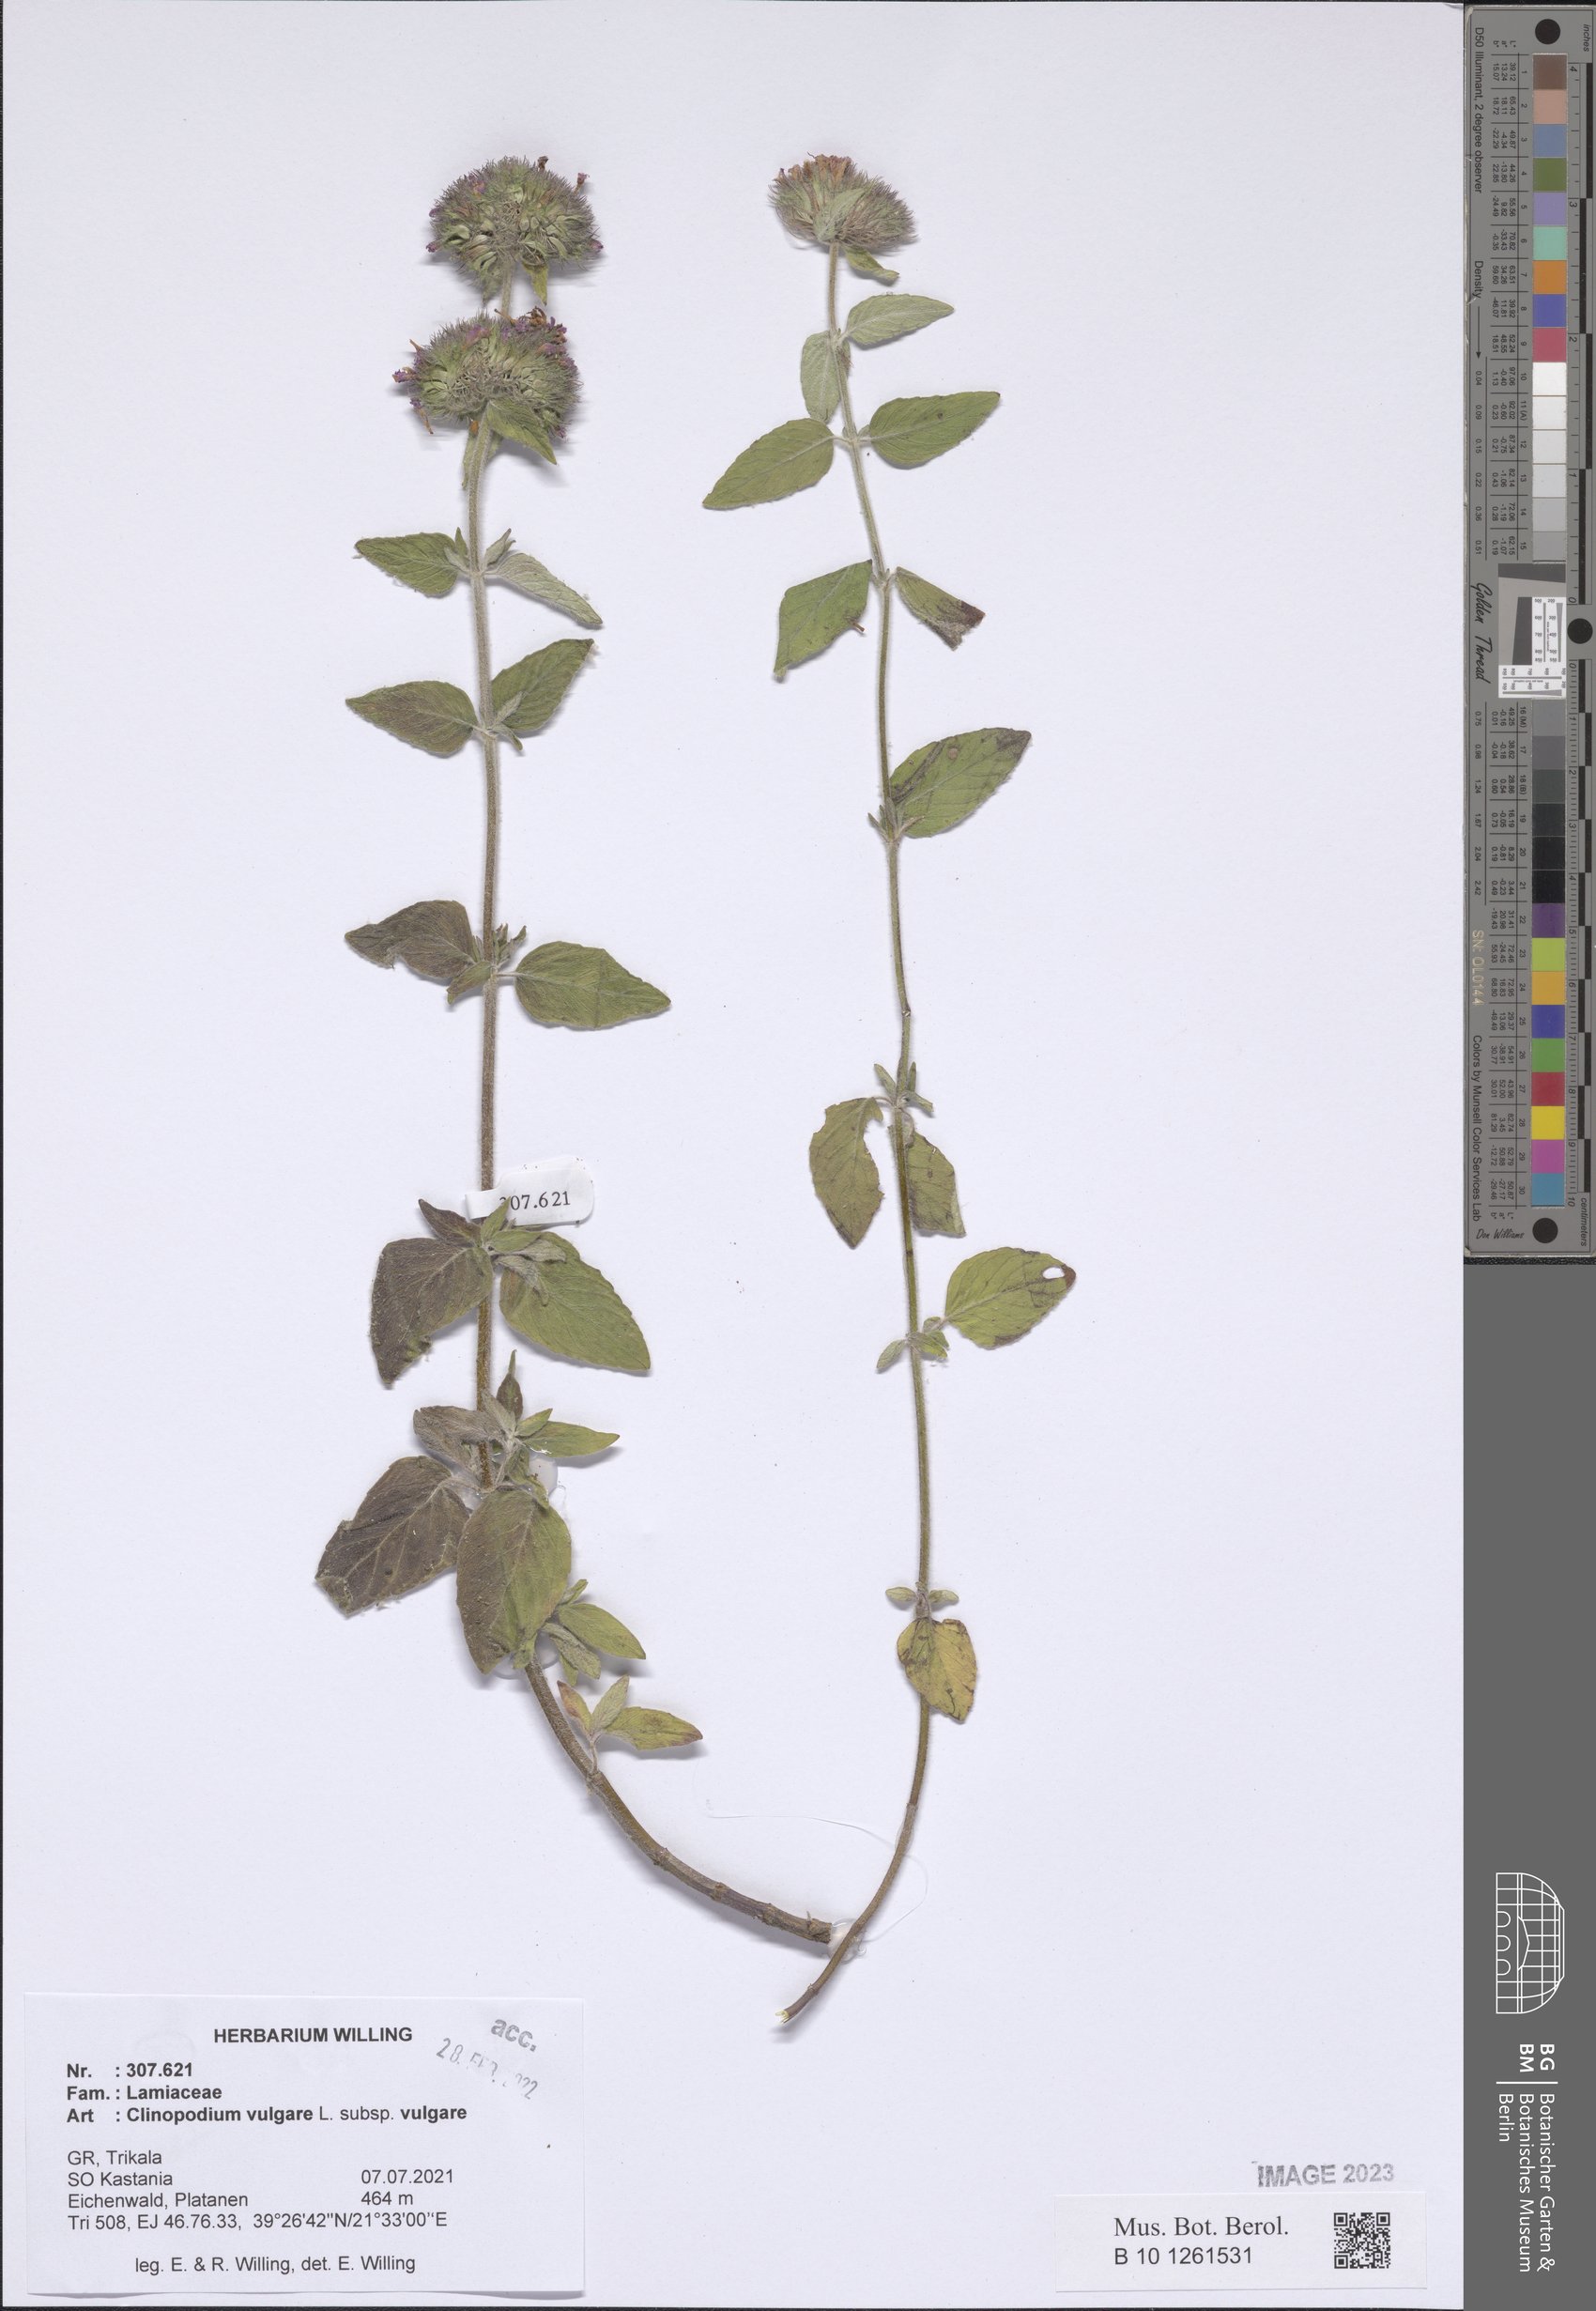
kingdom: Plantae
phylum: Tracheophyta
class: Magnoliopsida
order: Lamiales
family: Lamiaceae
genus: Clinopodium
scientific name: Clinopodium vulgare
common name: Wild basil
